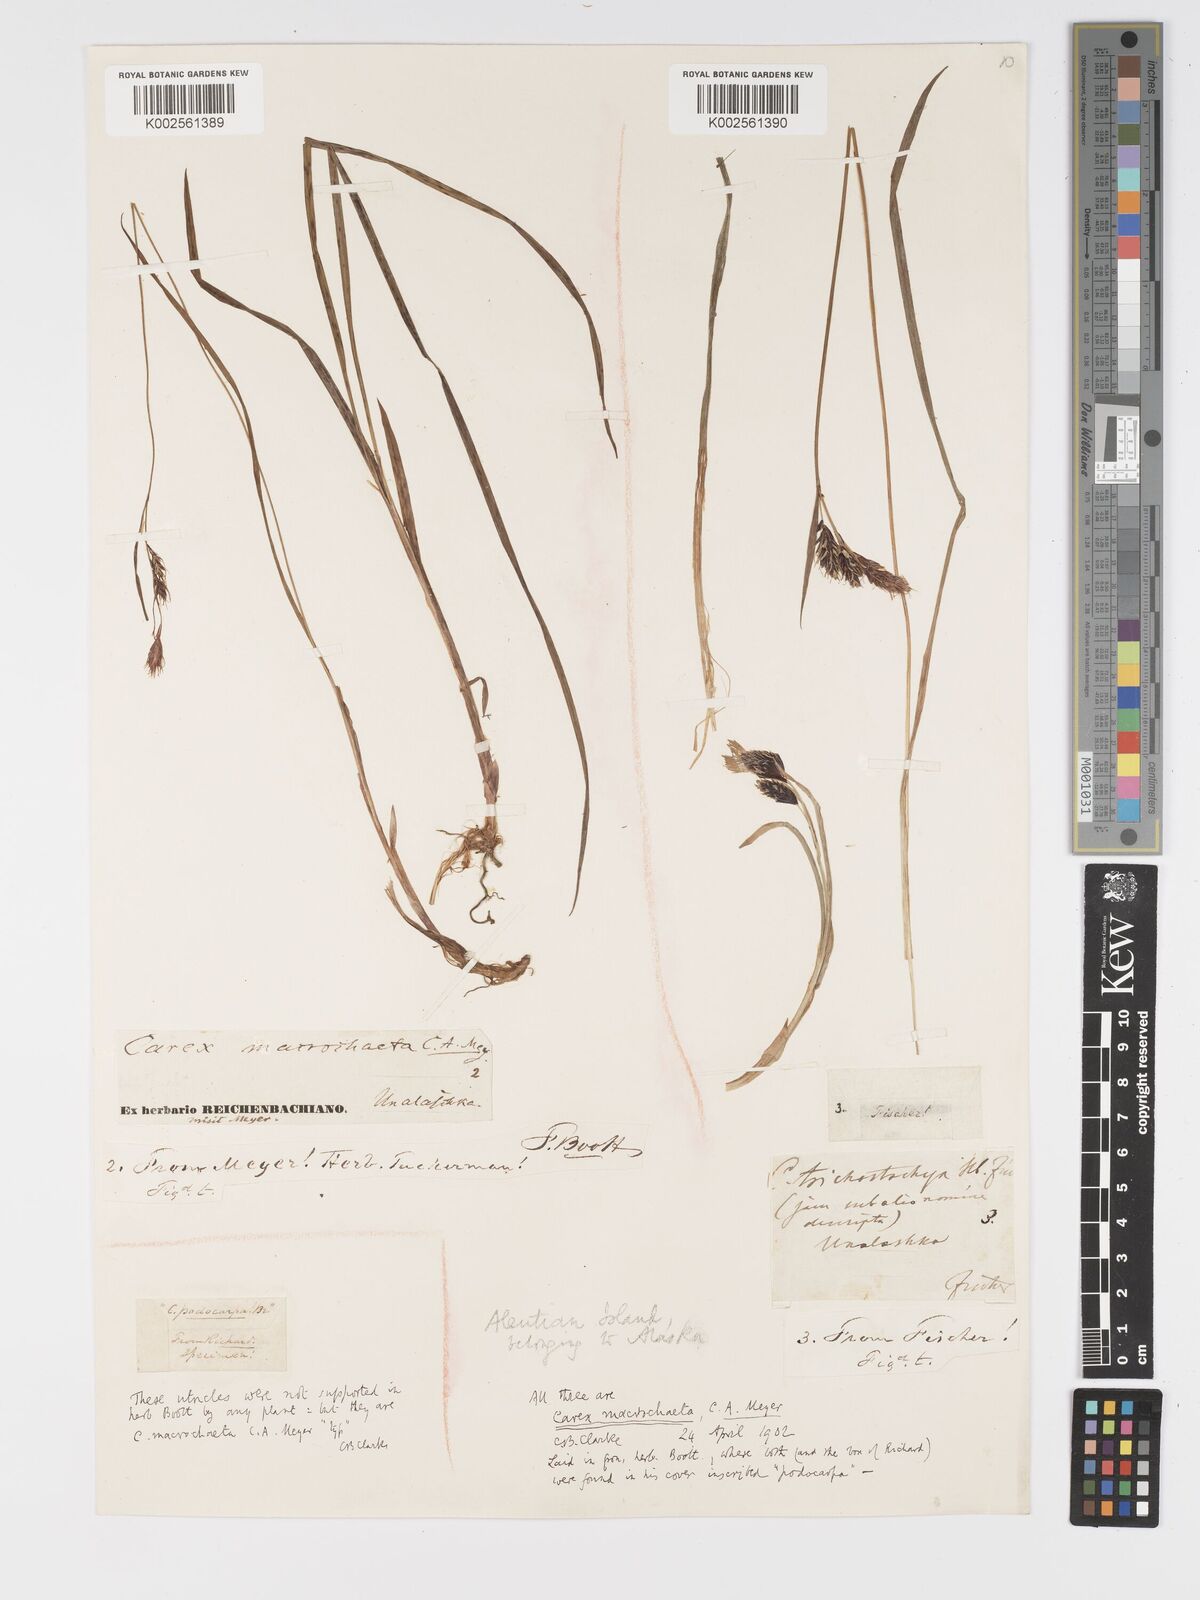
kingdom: Plantae
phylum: Tracheophyta
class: Liliopsida
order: Poales
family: Cyperaceae
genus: Carex
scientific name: Carex macrochaeta
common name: Alaska large awn sedge
